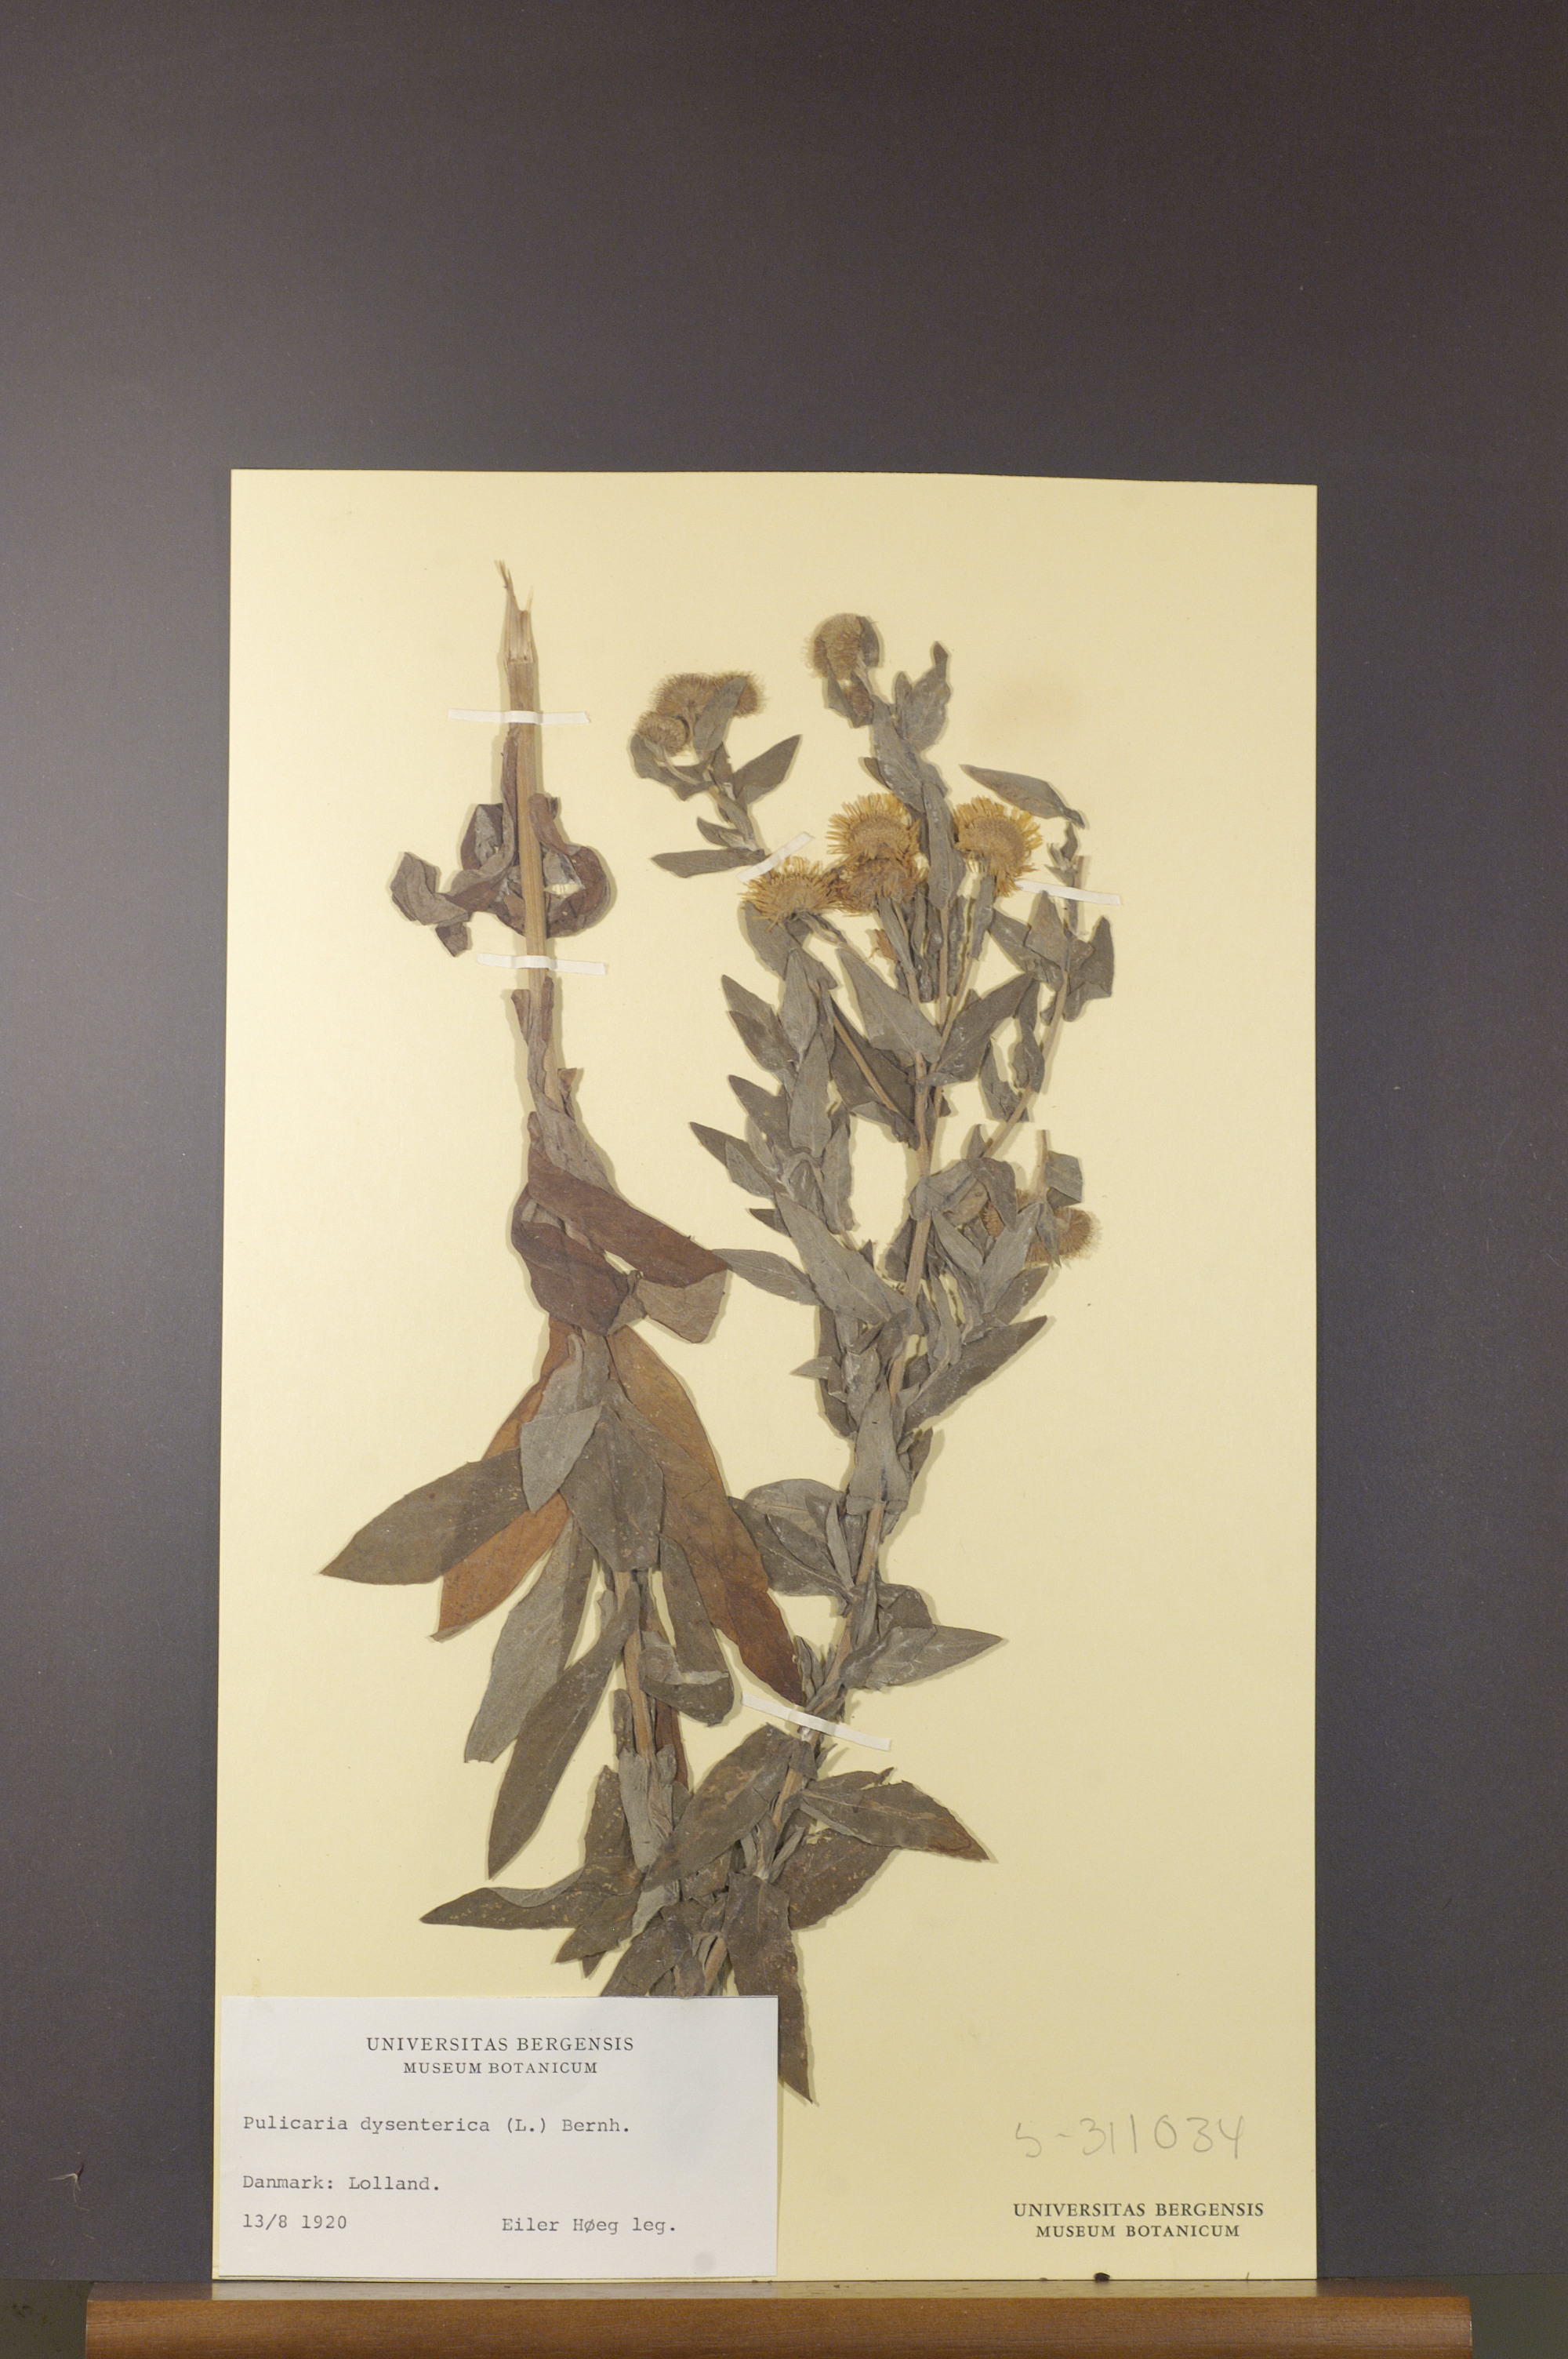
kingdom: Plantae
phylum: Tracheophyta
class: Magnoliopsida
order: Asterales
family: Asteraceae
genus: Pulicaria
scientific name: Pulicaria dysenterica
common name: Common fleabane
